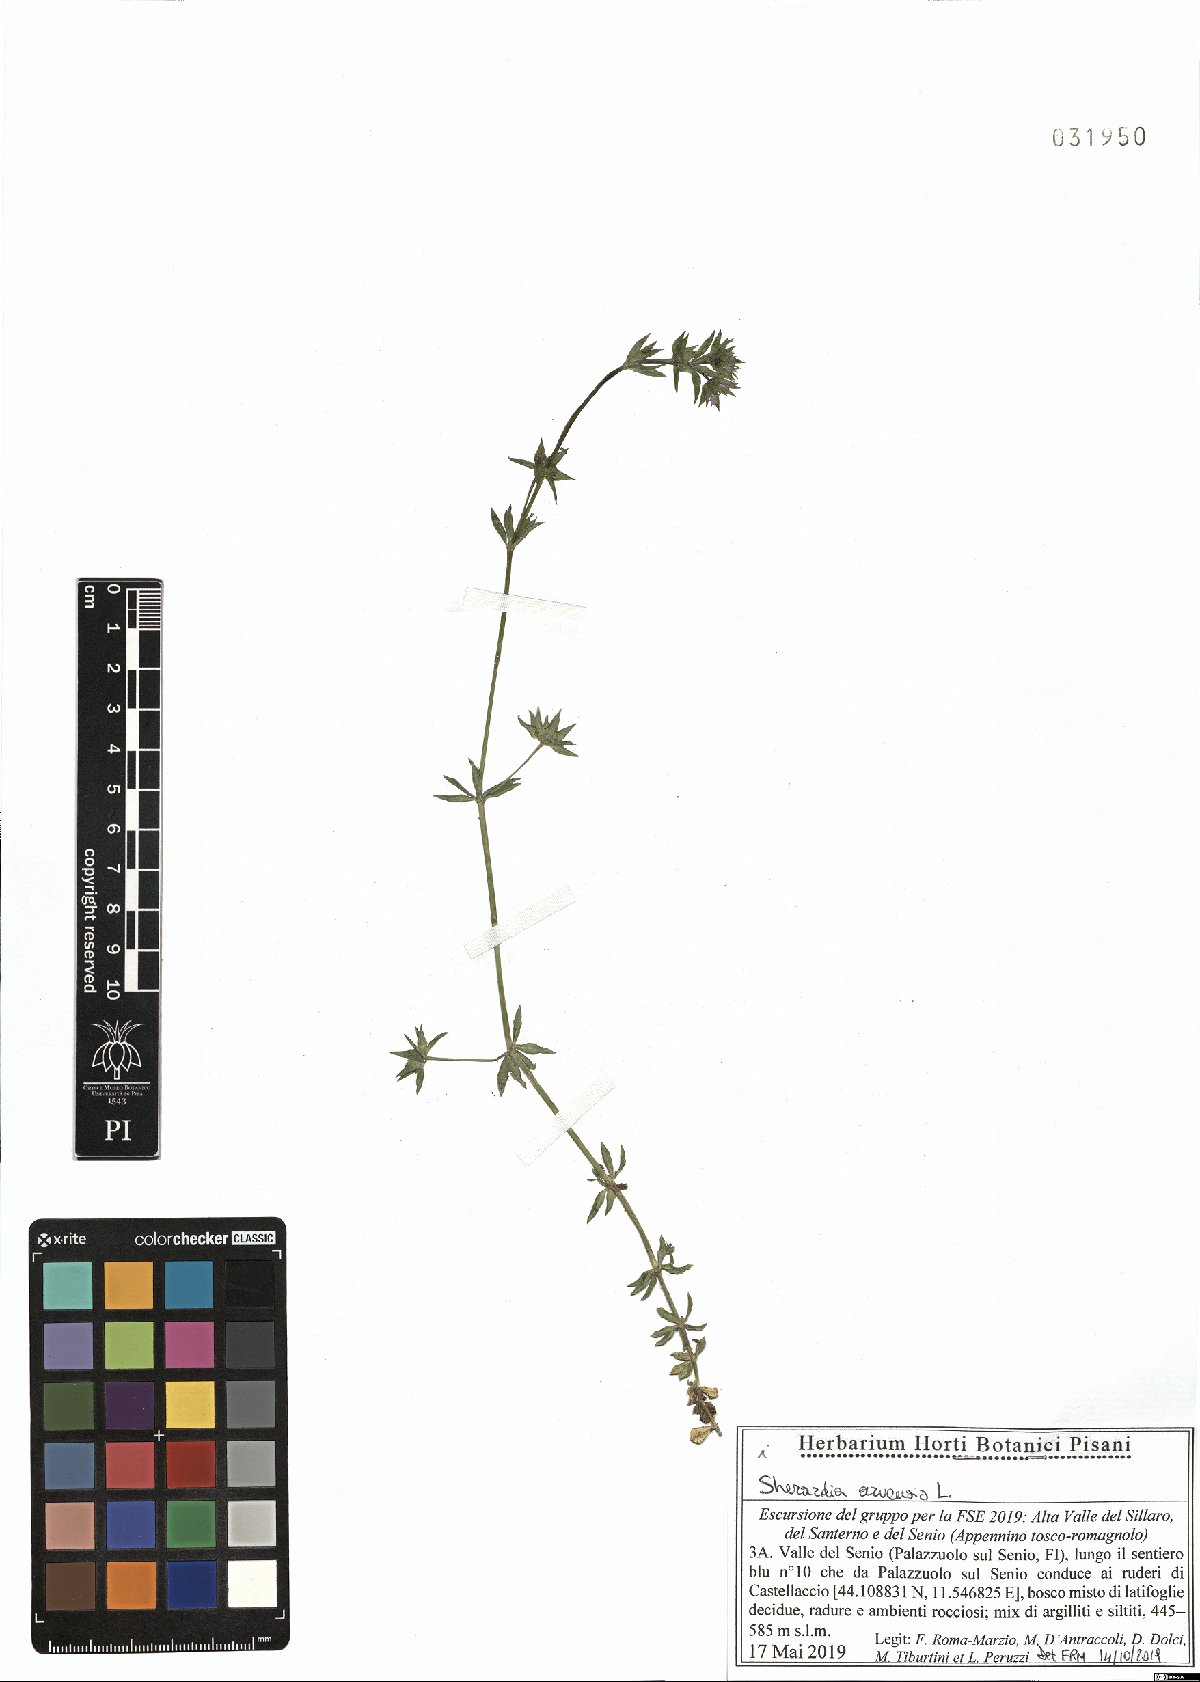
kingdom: Plantae
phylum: Tracheophyta
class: Magnoliopsida
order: Gentianales
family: Rubiaceae
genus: Sherardia
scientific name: Sherardia arvensis
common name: Field madder
